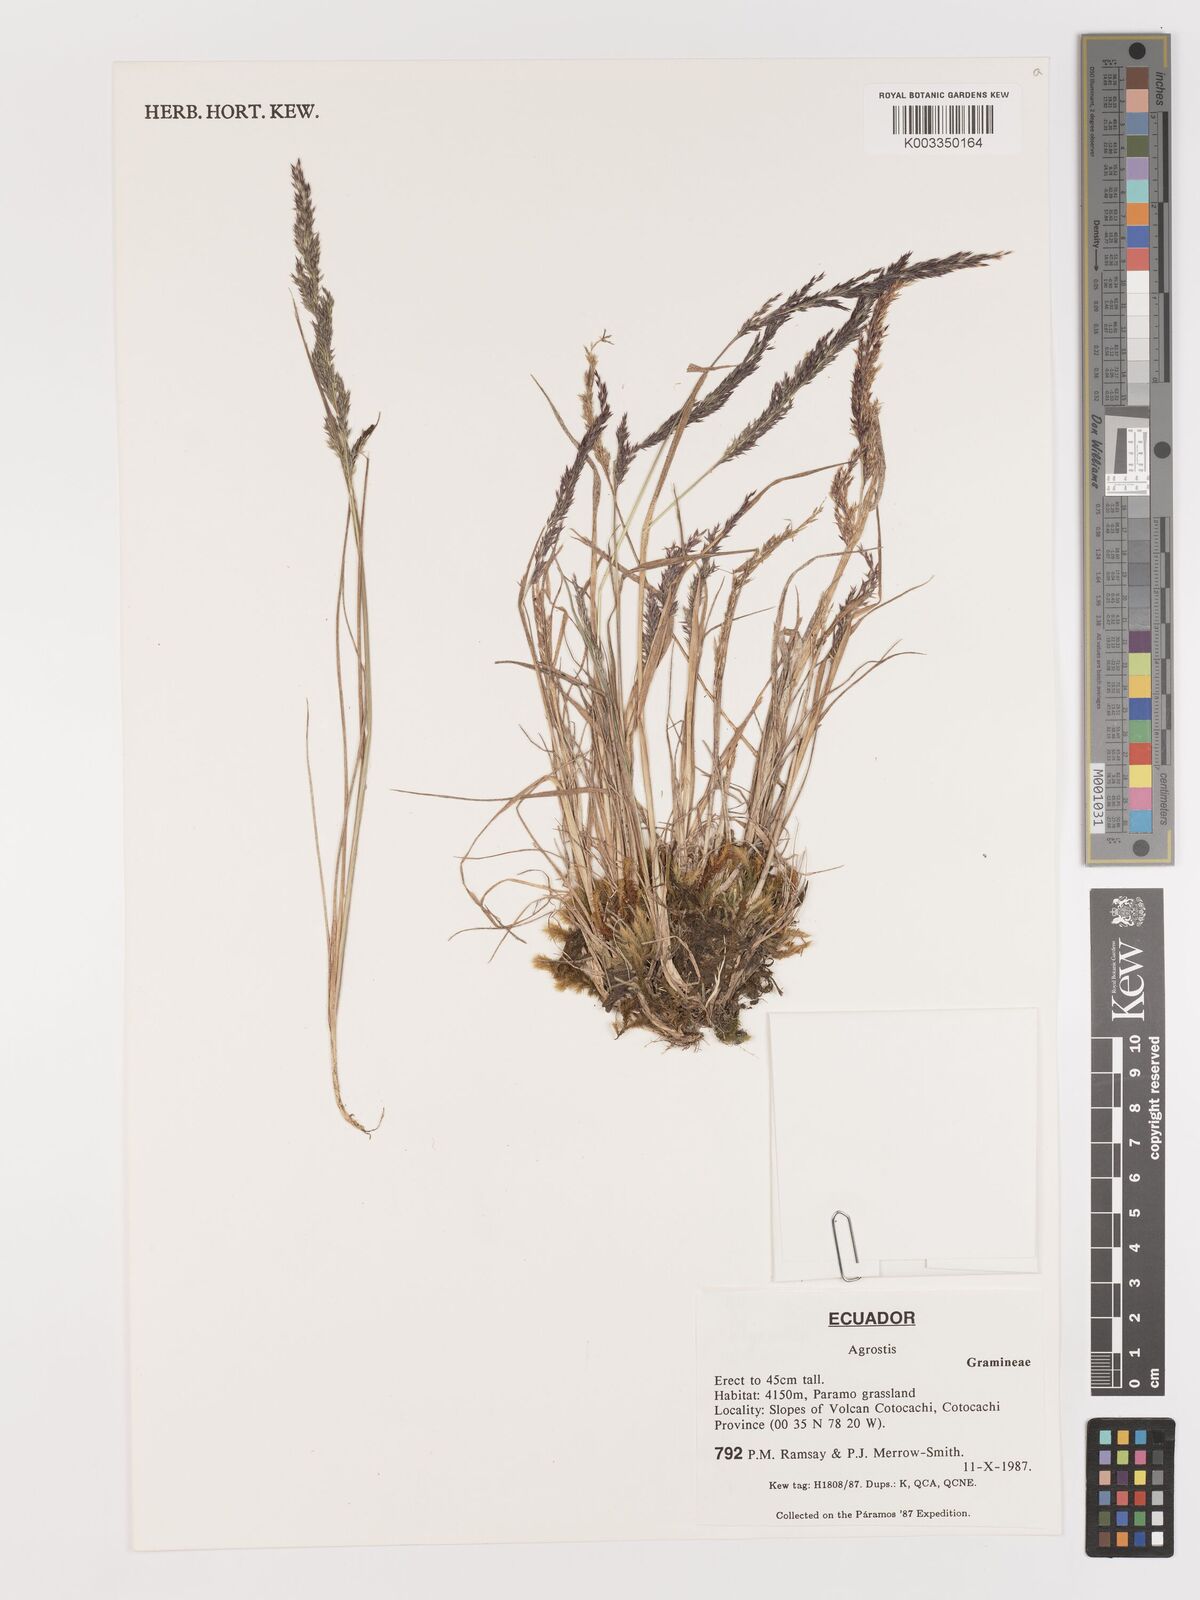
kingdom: Plantae
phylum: Tracheophyta
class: Liliopsida
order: Poales
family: Poaceae
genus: Agrostis
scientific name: Agrostis
